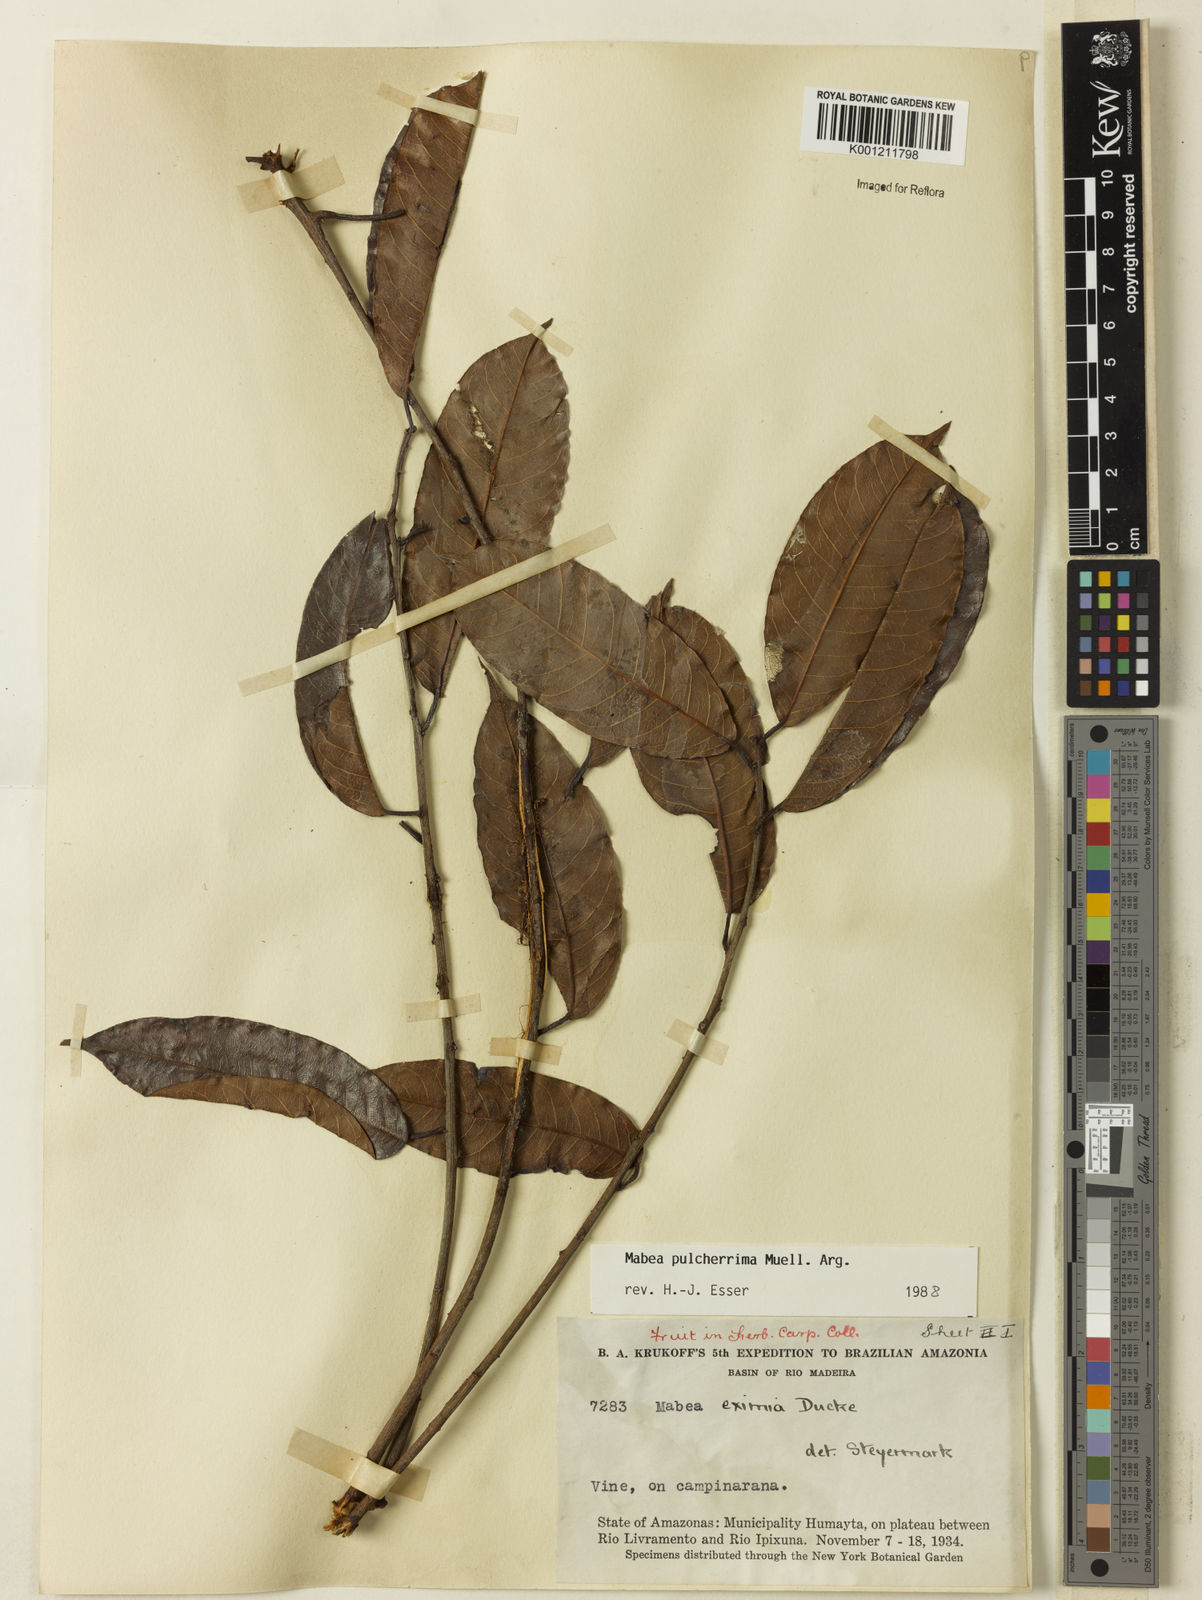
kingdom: Plantae
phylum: Tracheophyta
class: Magnoliopsida
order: Malpighiales
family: Euphorbiaceae
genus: Mabea
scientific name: Mabea
